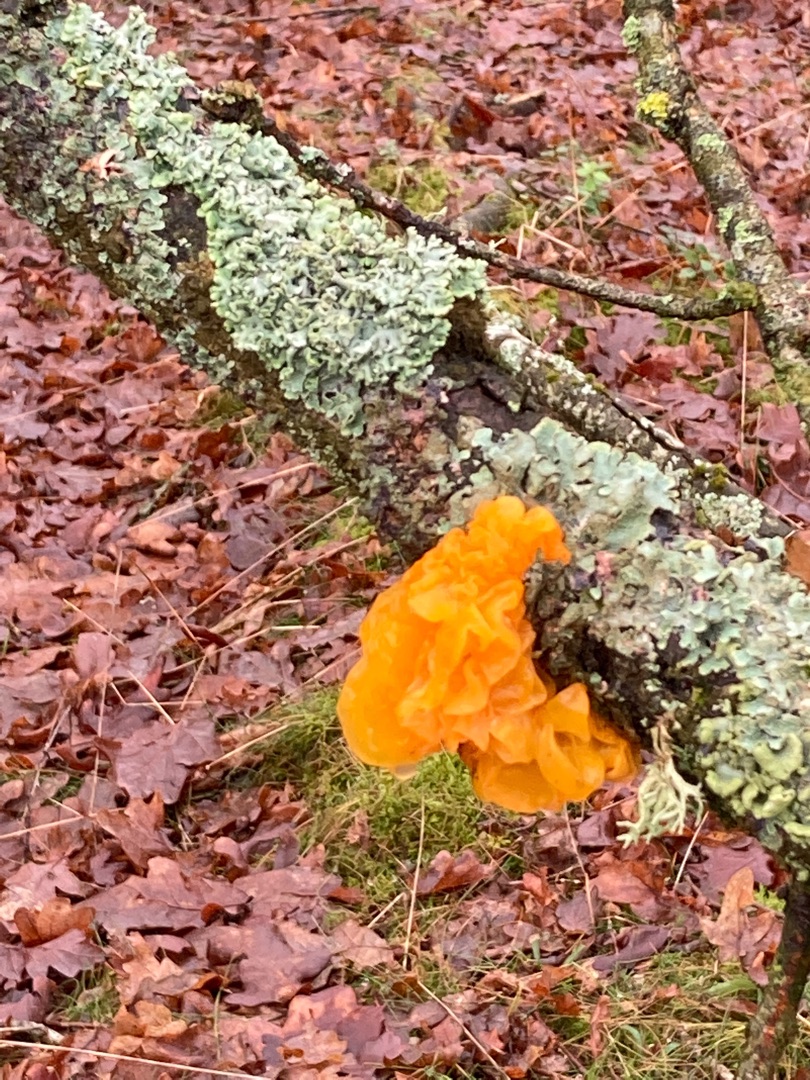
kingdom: Fungi
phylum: Basidiomycota
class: Tremellomycetes
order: Tremellales
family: Tremellaceae
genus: Tremella
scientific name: Tremella mesenterica
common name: Gul bævresvamp
